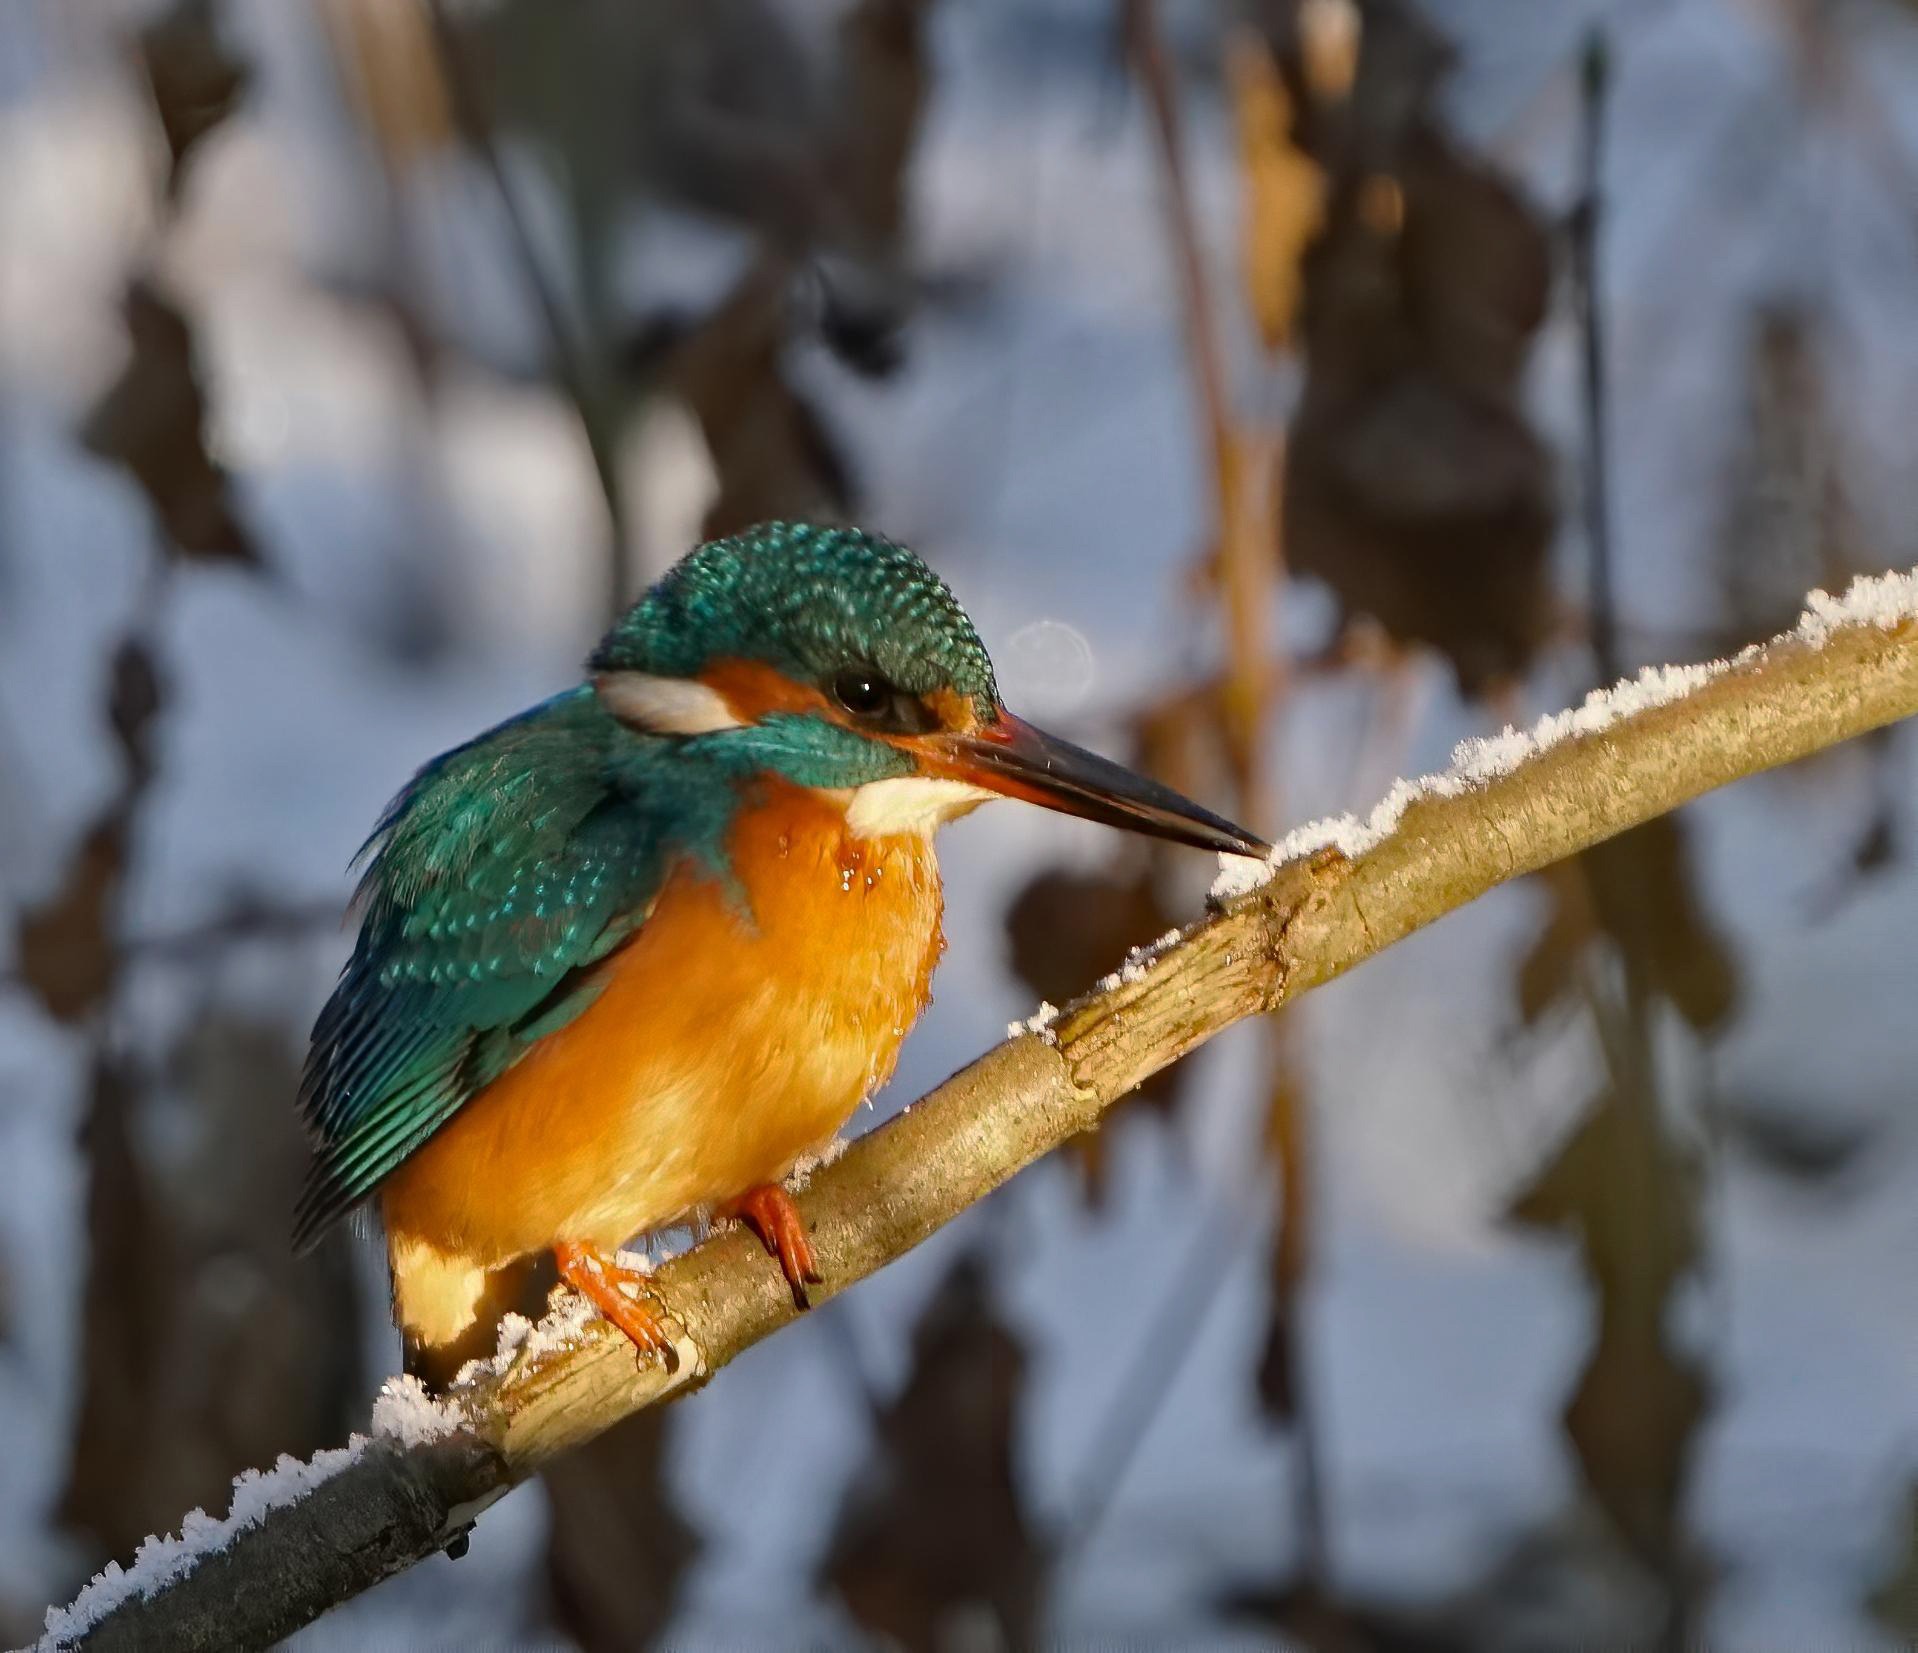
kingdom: Animalia
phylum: Chordata
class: Aves
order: Coraciiformes
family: Alcedinidae
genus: Alcedo
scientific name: Alcedo atthis
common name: Isfugl
